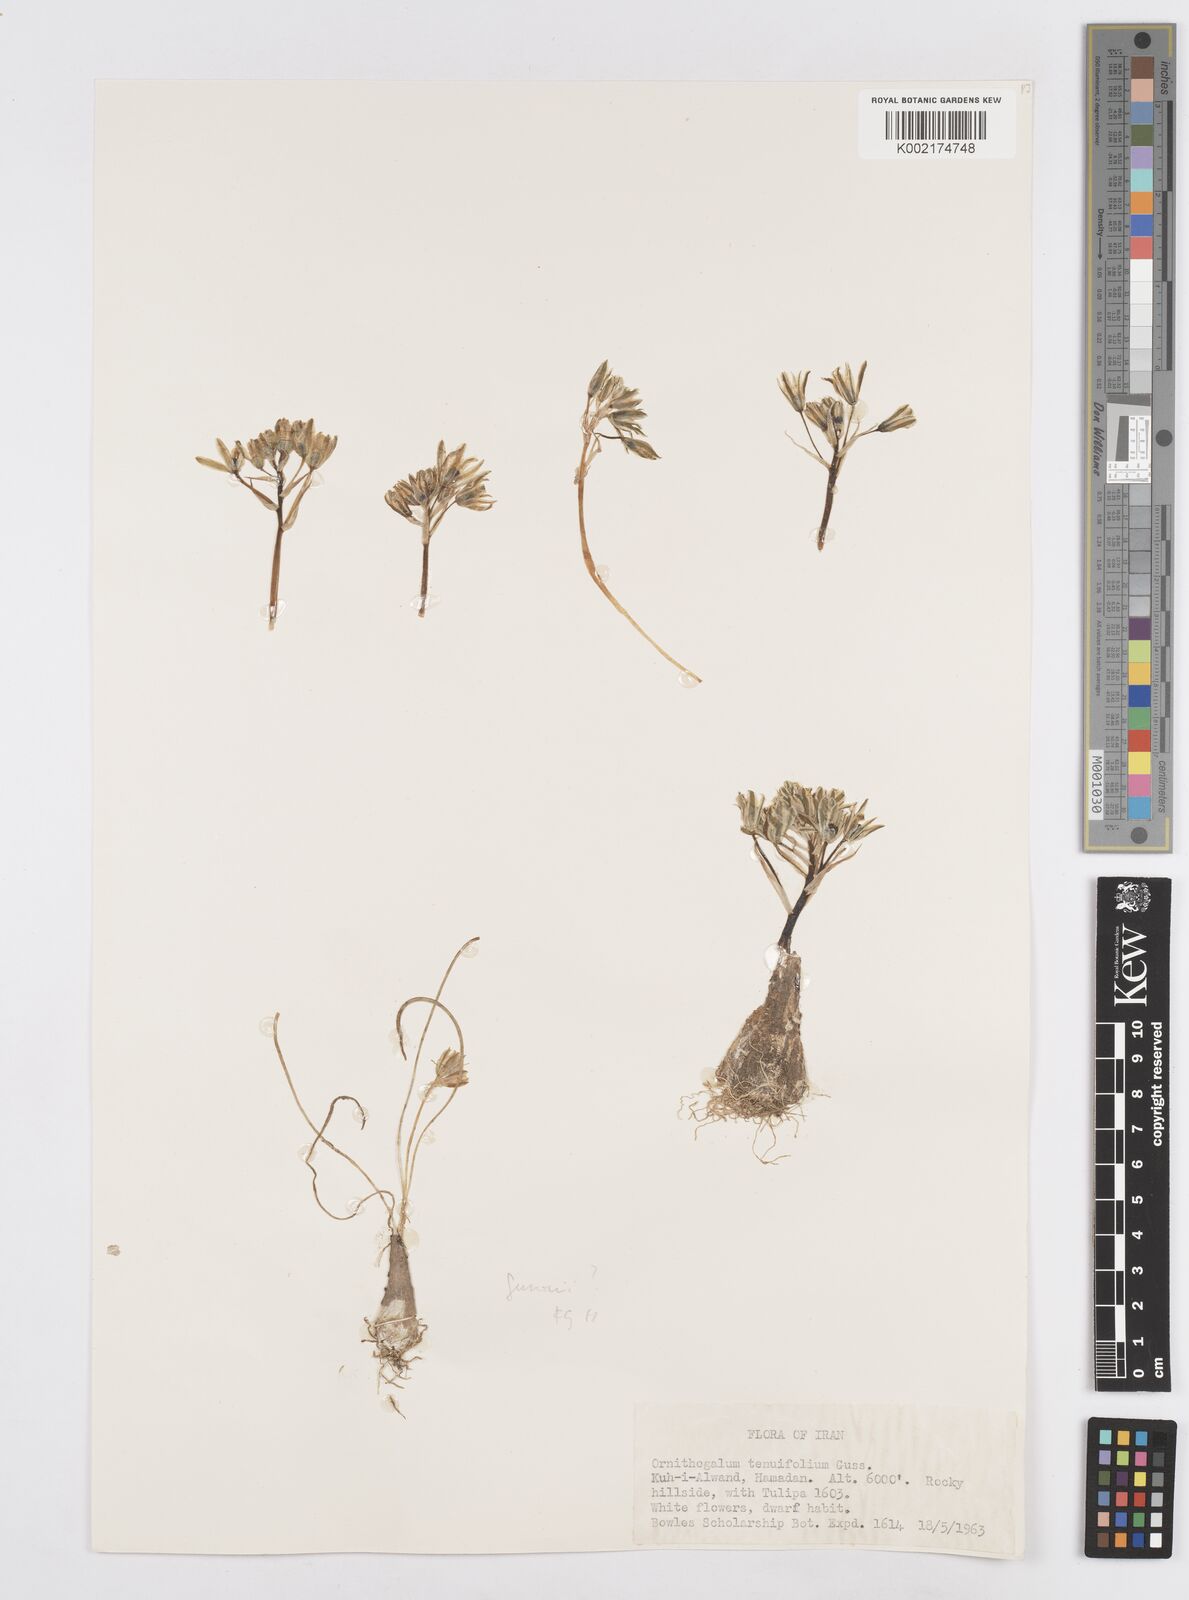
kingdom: Plantae
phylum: Tracheophyta
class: Liliopsida
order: Asparagales
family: Asparagaceae
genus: Ornithogalum
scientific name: Ornithogalum gussonei
